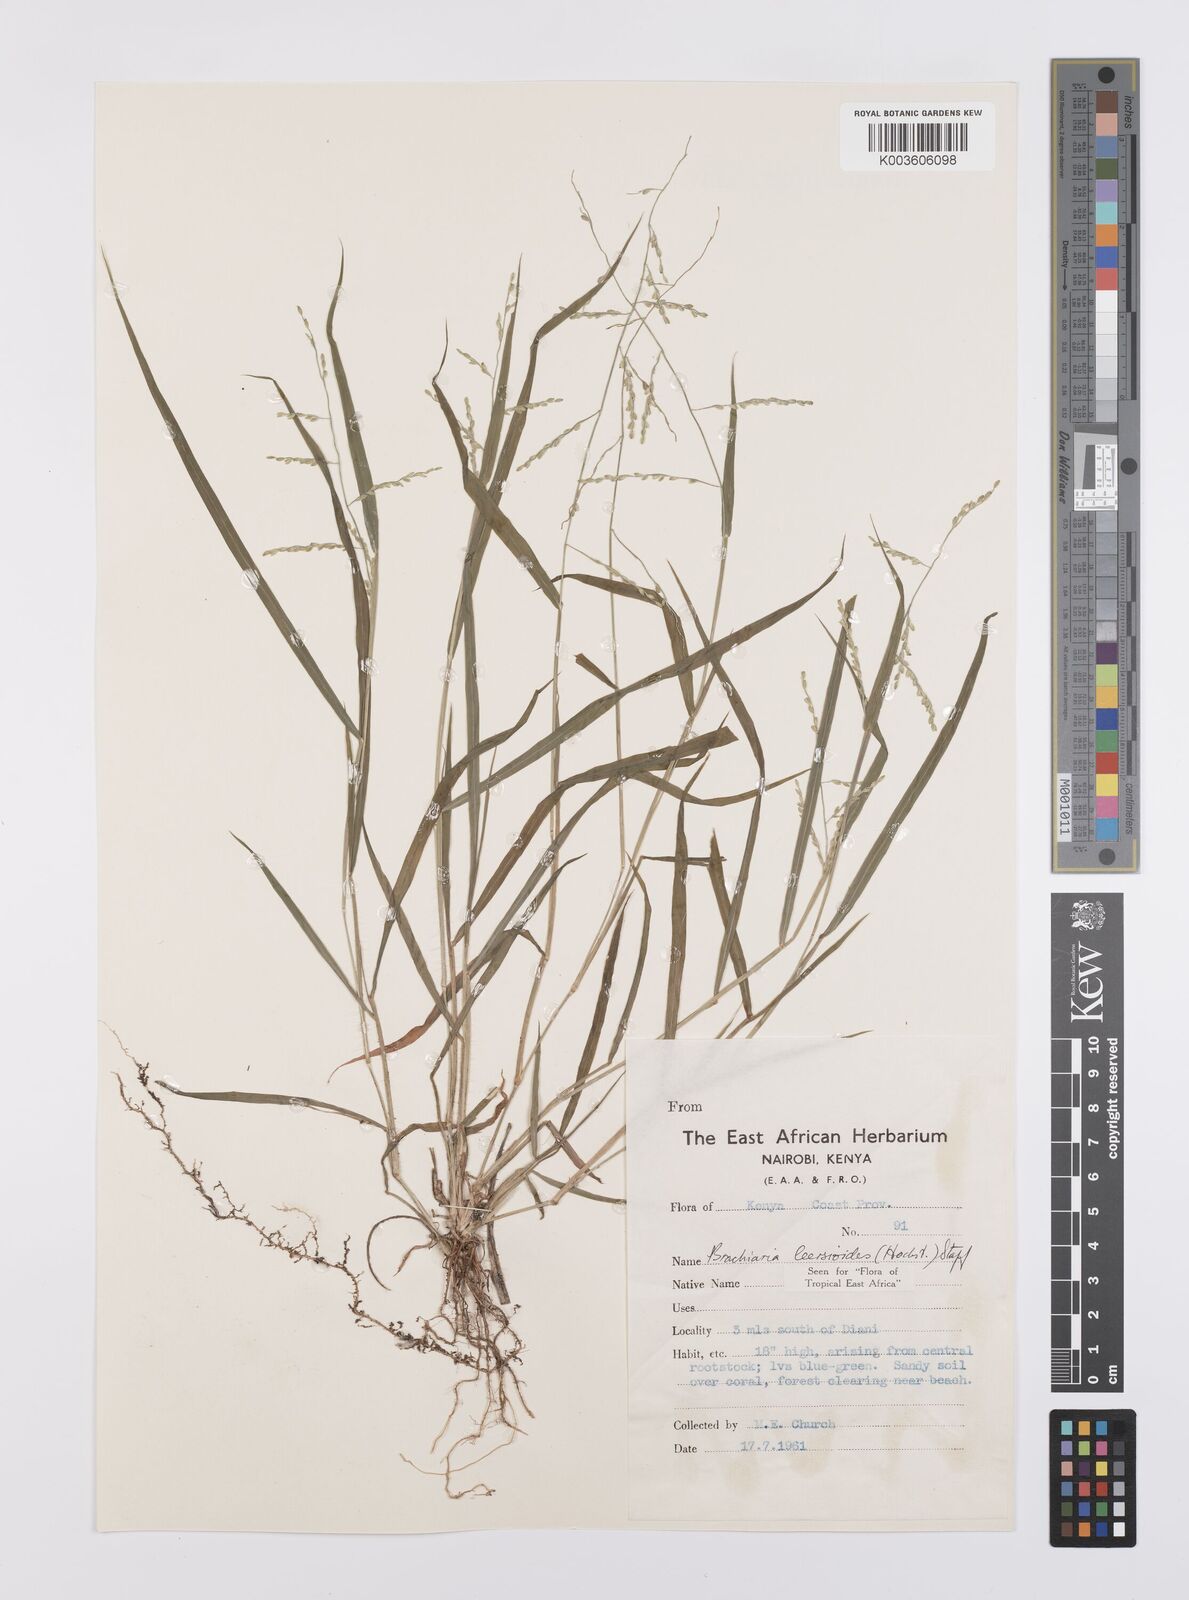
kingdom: Plantae
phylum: Tracheophyta
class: Liliopsida
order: Poales
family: Poaceae
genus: Urochloa
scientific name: Urochloa leersioides
